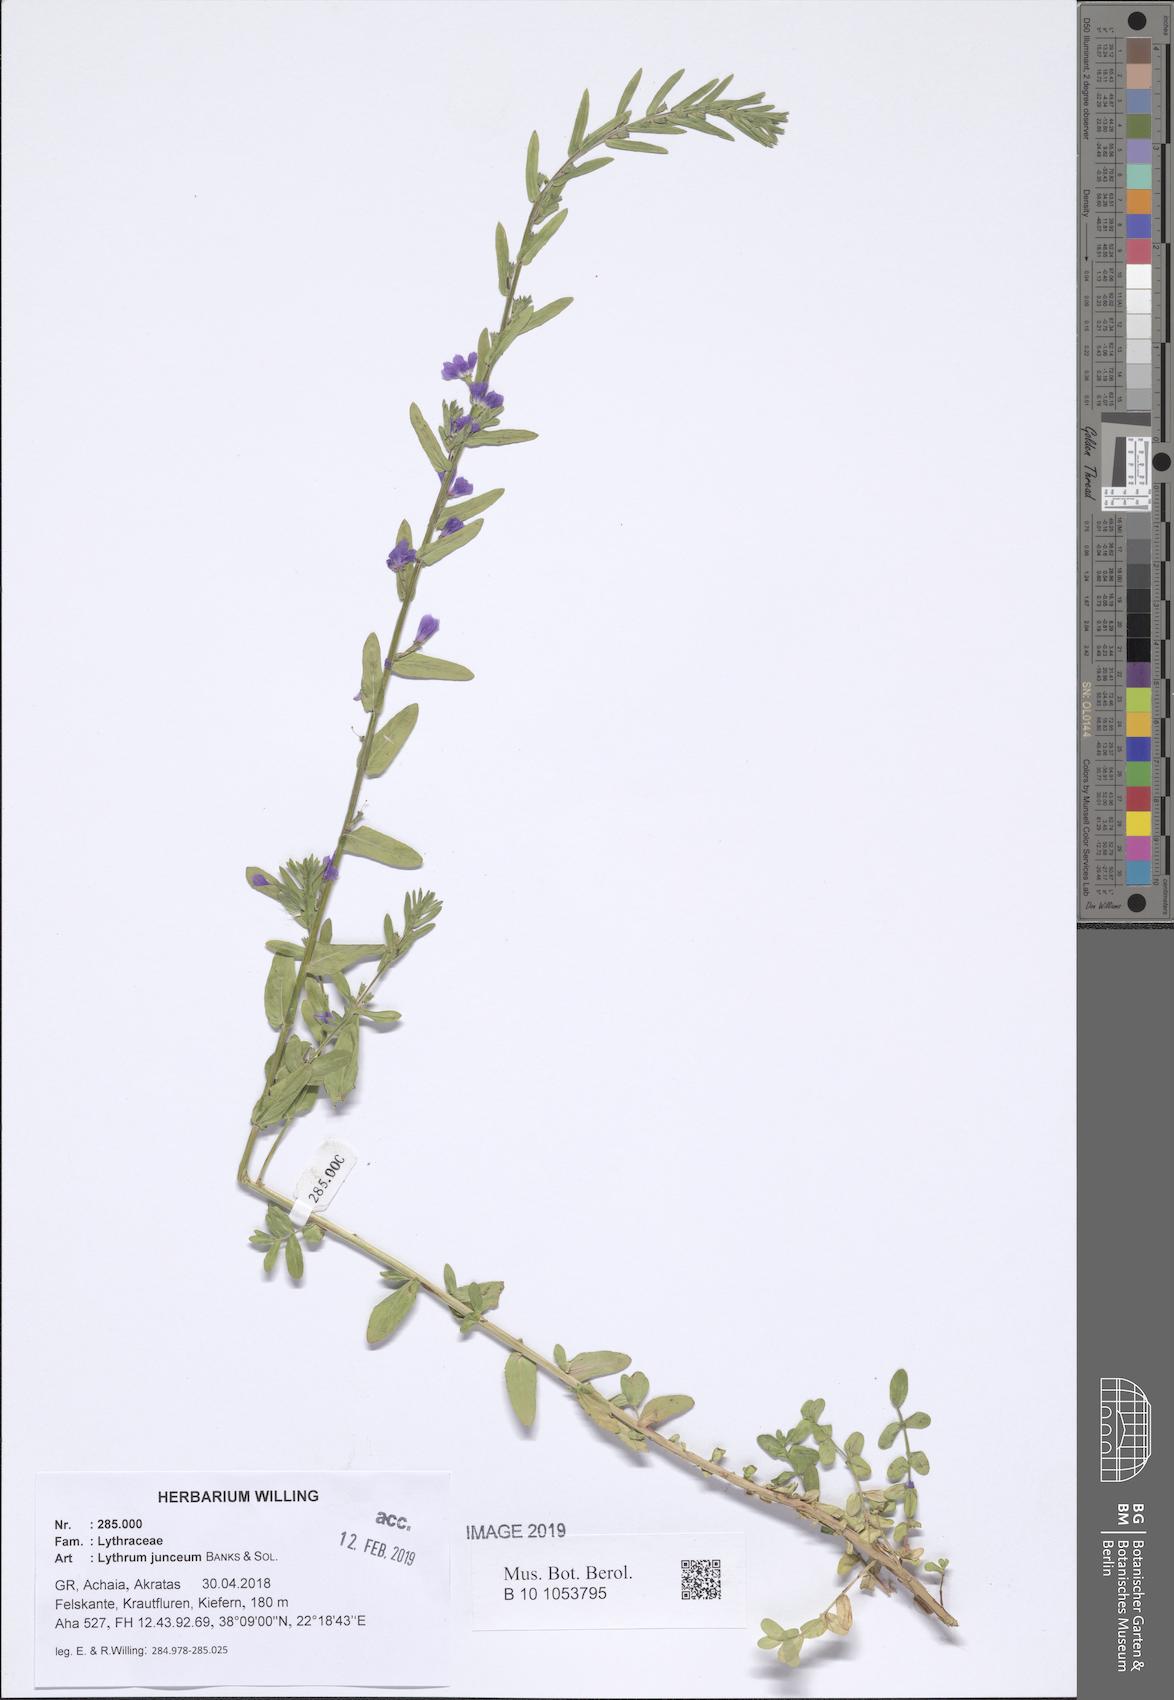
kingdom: Plantae
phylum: Tracheophyta
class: Magnoliopsida
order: Myrtales
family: Lythraceae
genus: Lythrum
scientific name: Lythrum junceum
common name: False grass-poly
